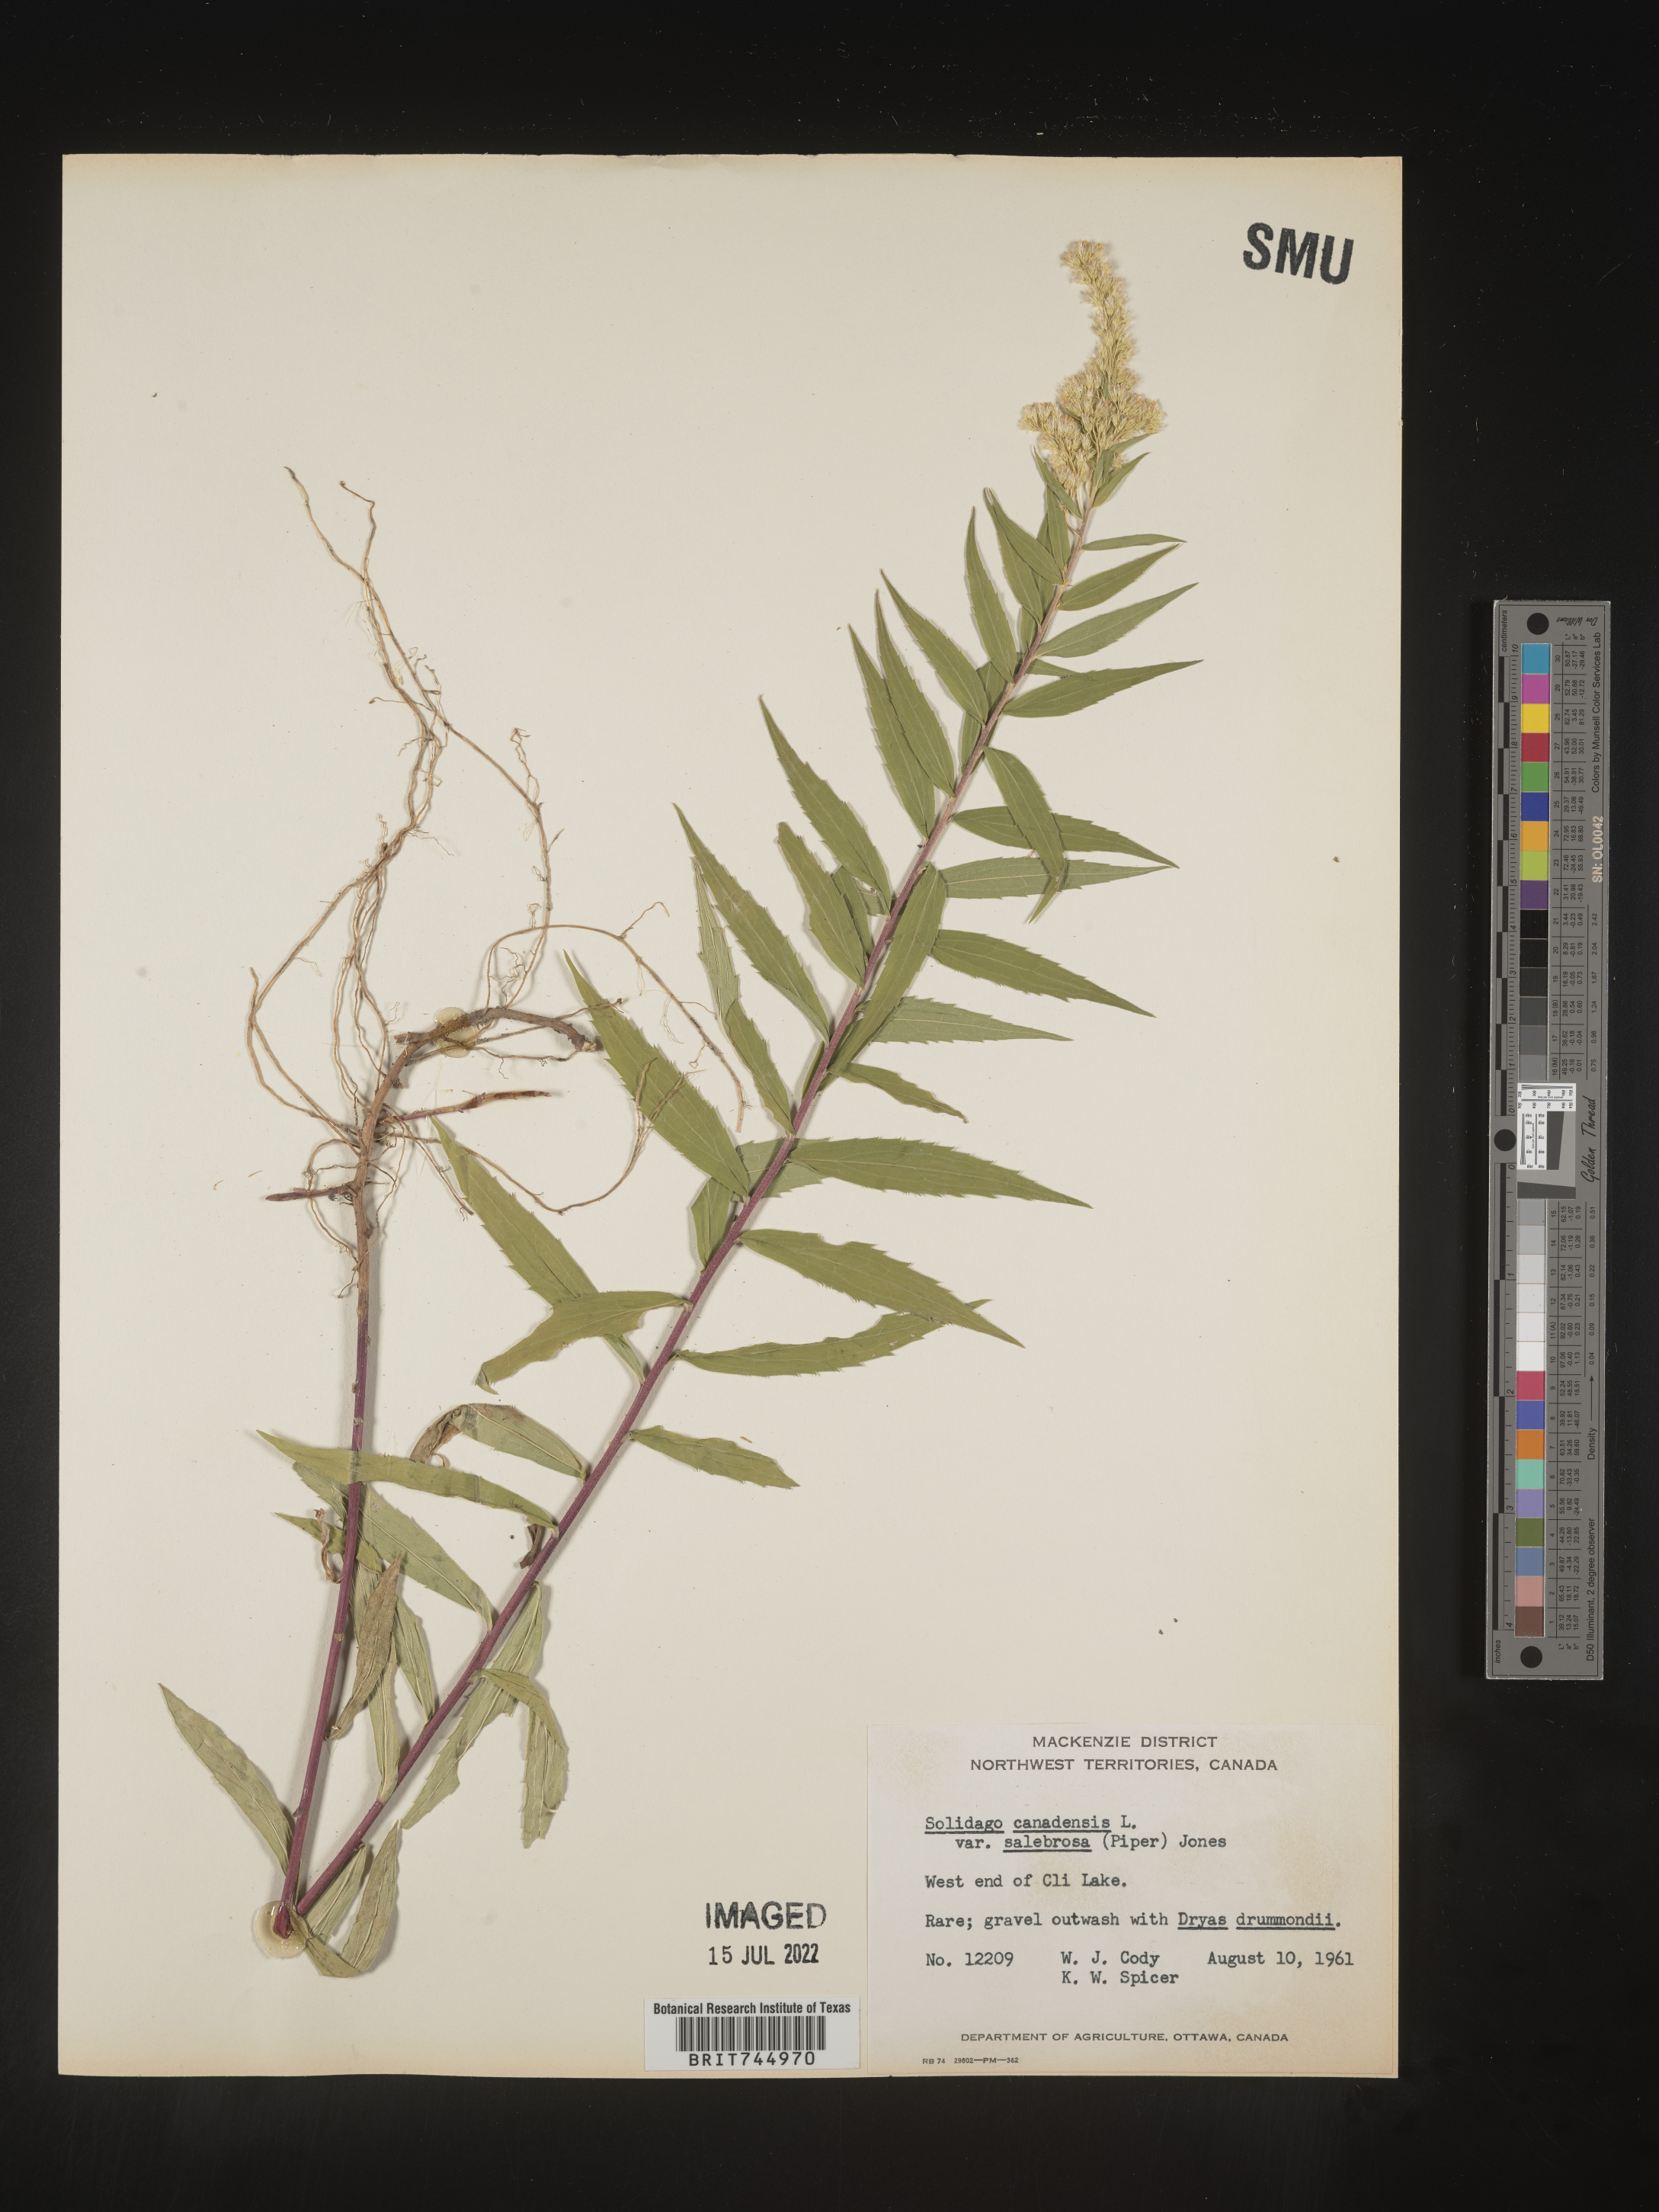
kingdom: Plantae
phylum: Tracheophyta
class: Magnoliopsida
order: Asterales
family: Asteraceae
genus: Solidago
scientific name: Solidago canadensis
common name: Canada goldenrod
